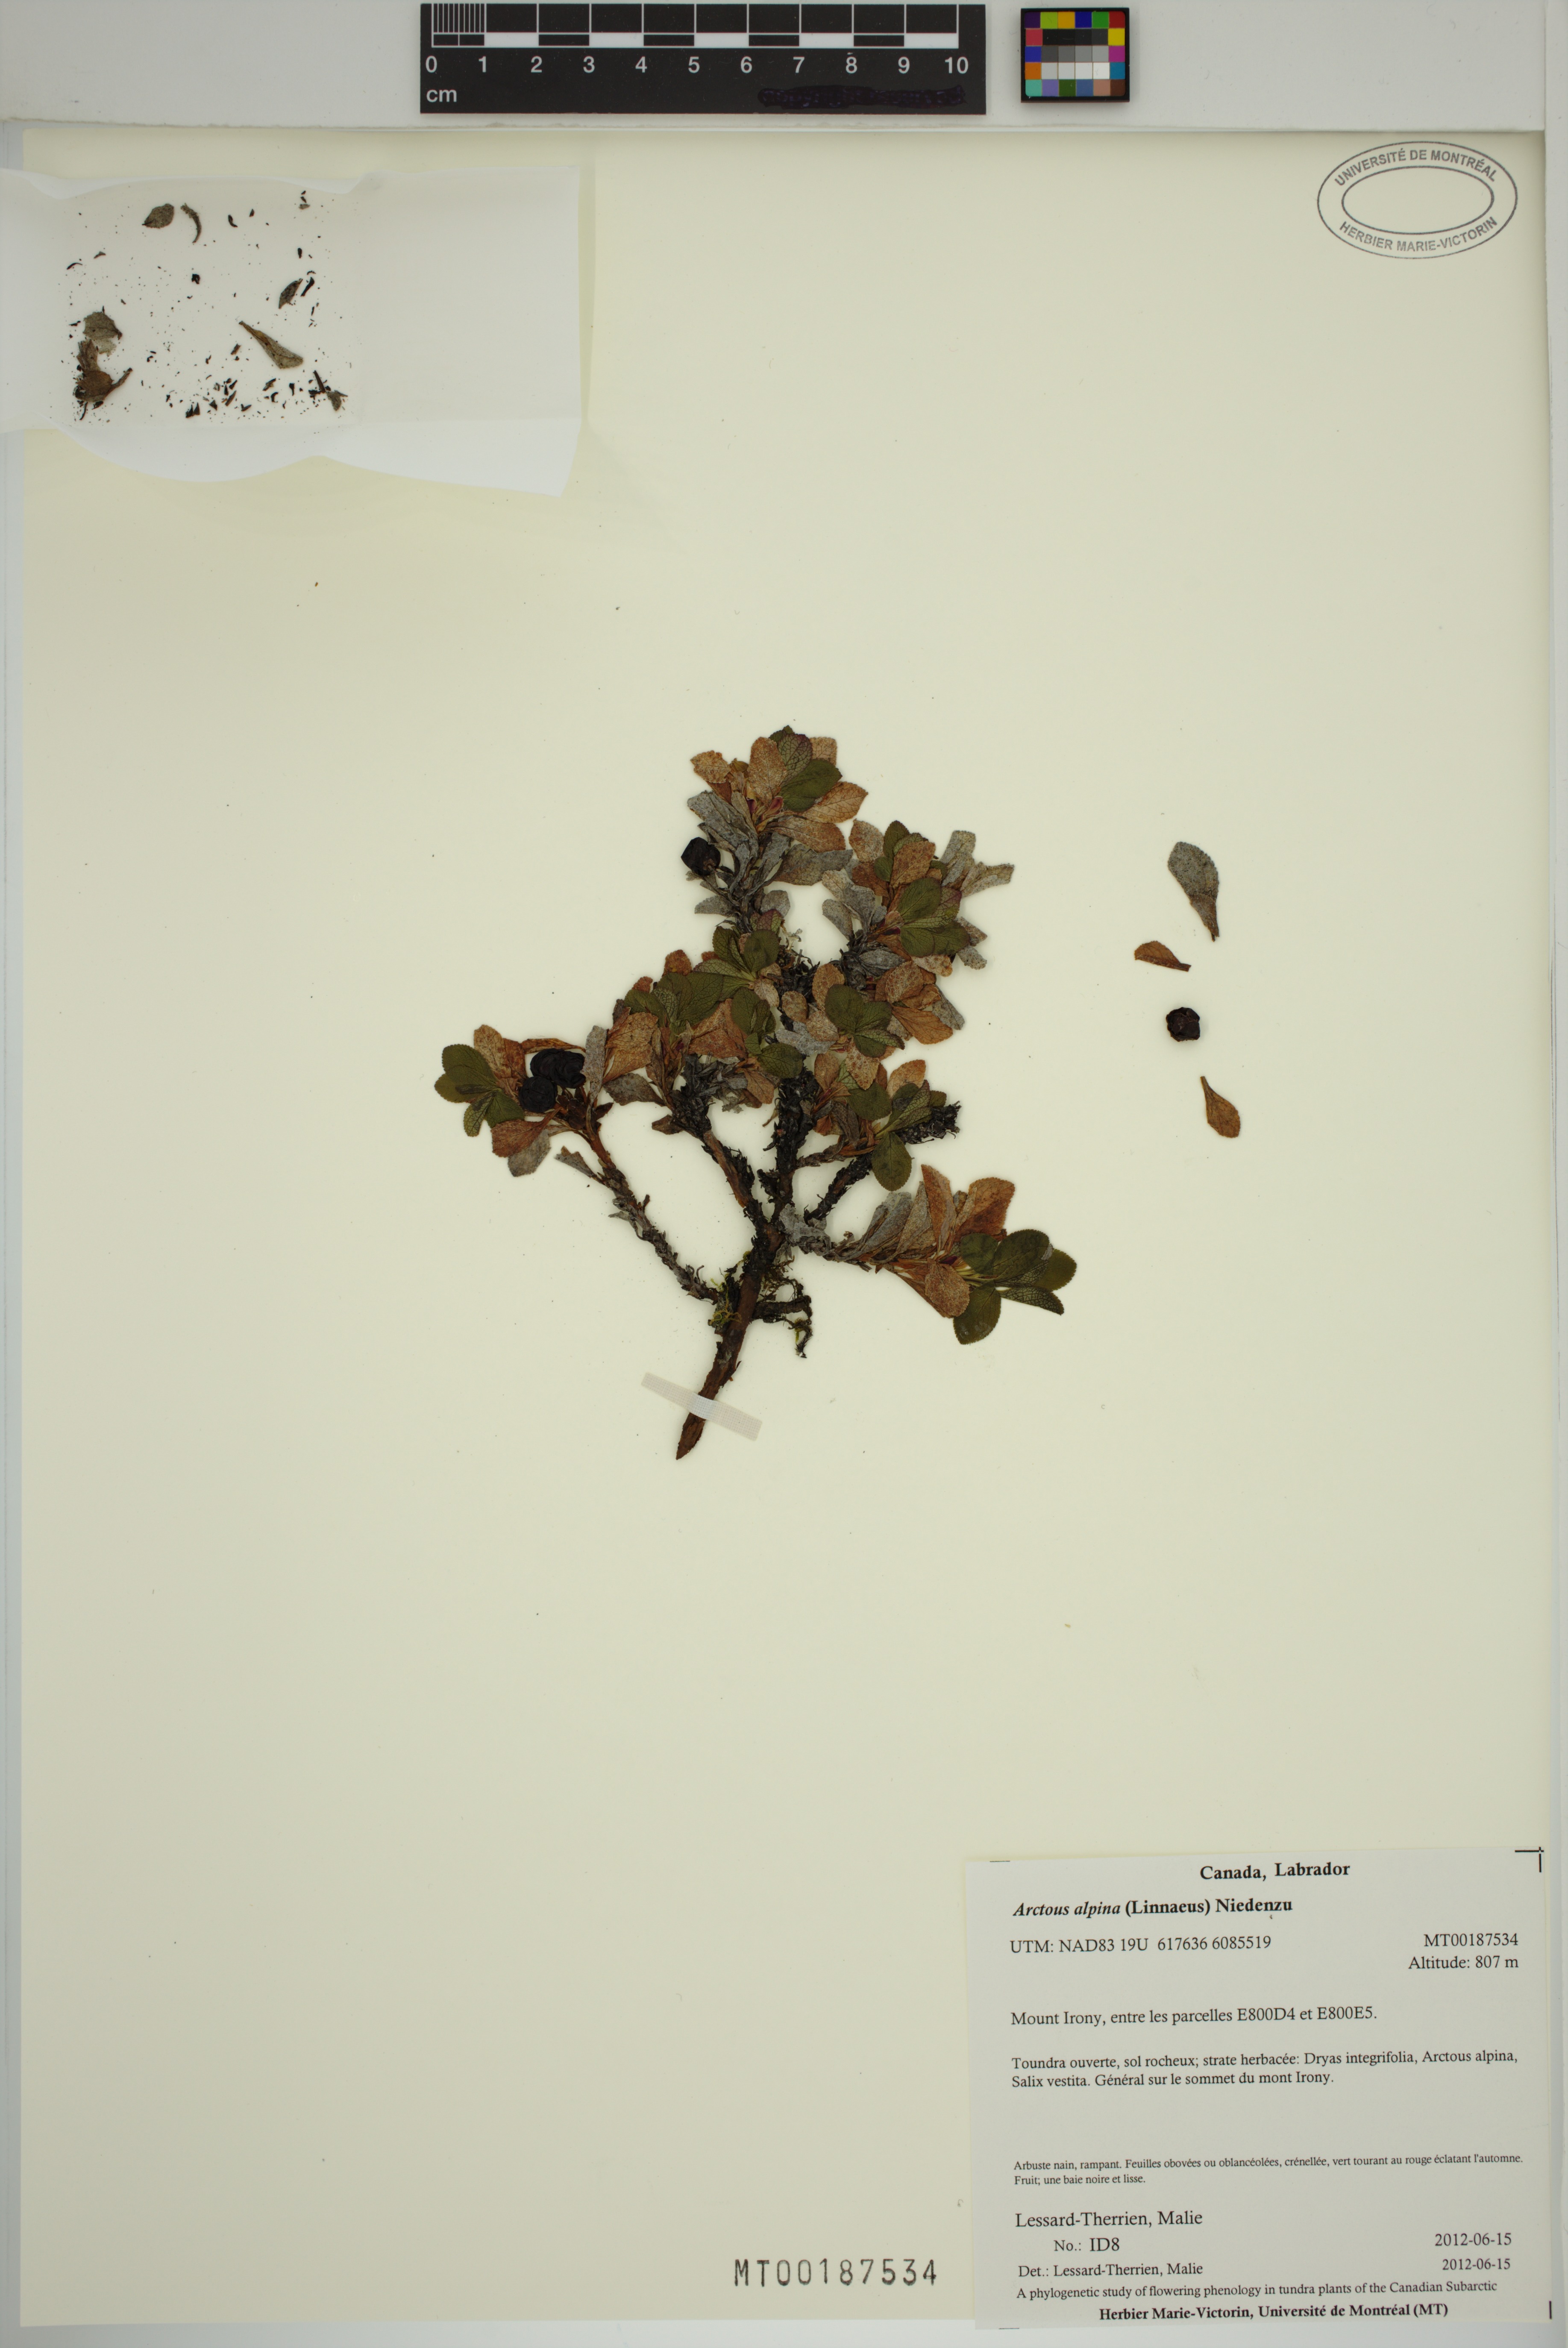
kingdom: Plantae
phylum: Tracheophyta
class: Magnoliopsida
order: Ericales
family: Ericaceae
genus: Arctostaphylos
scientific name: Arctostaphylos alpinus
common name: Alpine bearberry
